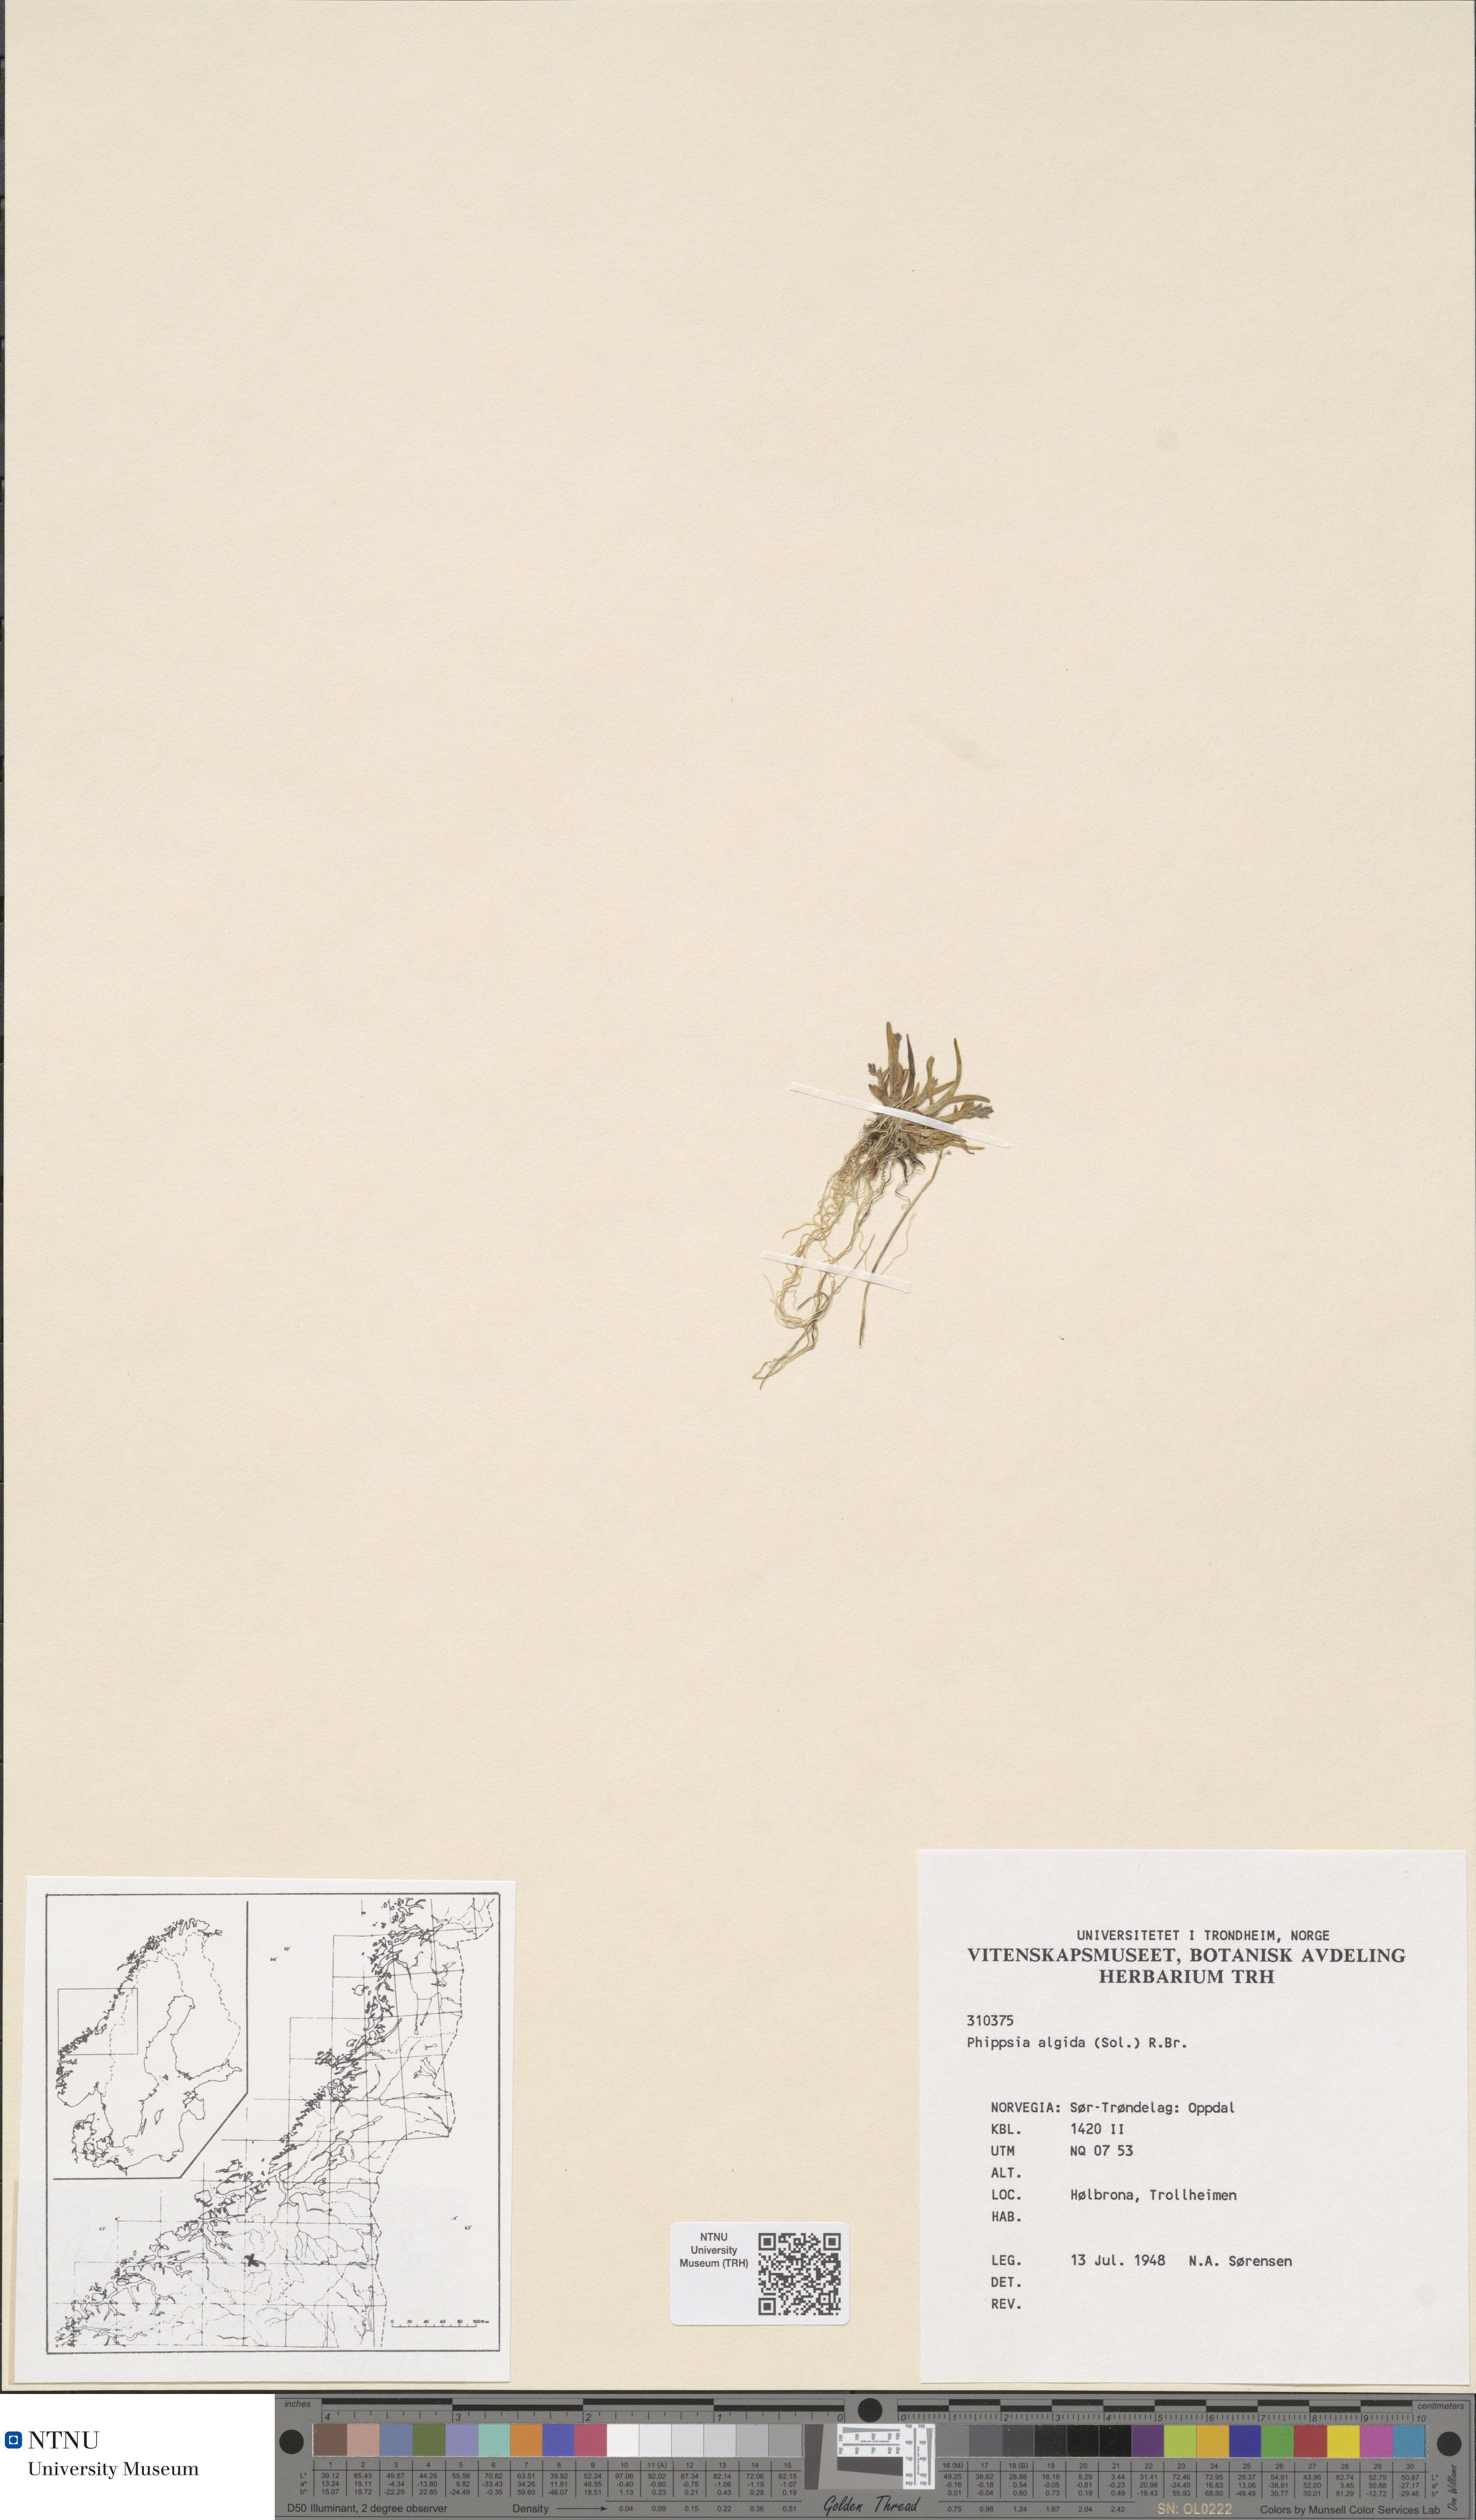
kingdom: Plantae
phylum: Tracheophyta
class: Liliopsida
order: Poales
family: Poaceae
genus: Phippsia
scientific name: Phippsia algida
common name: Ice grass
